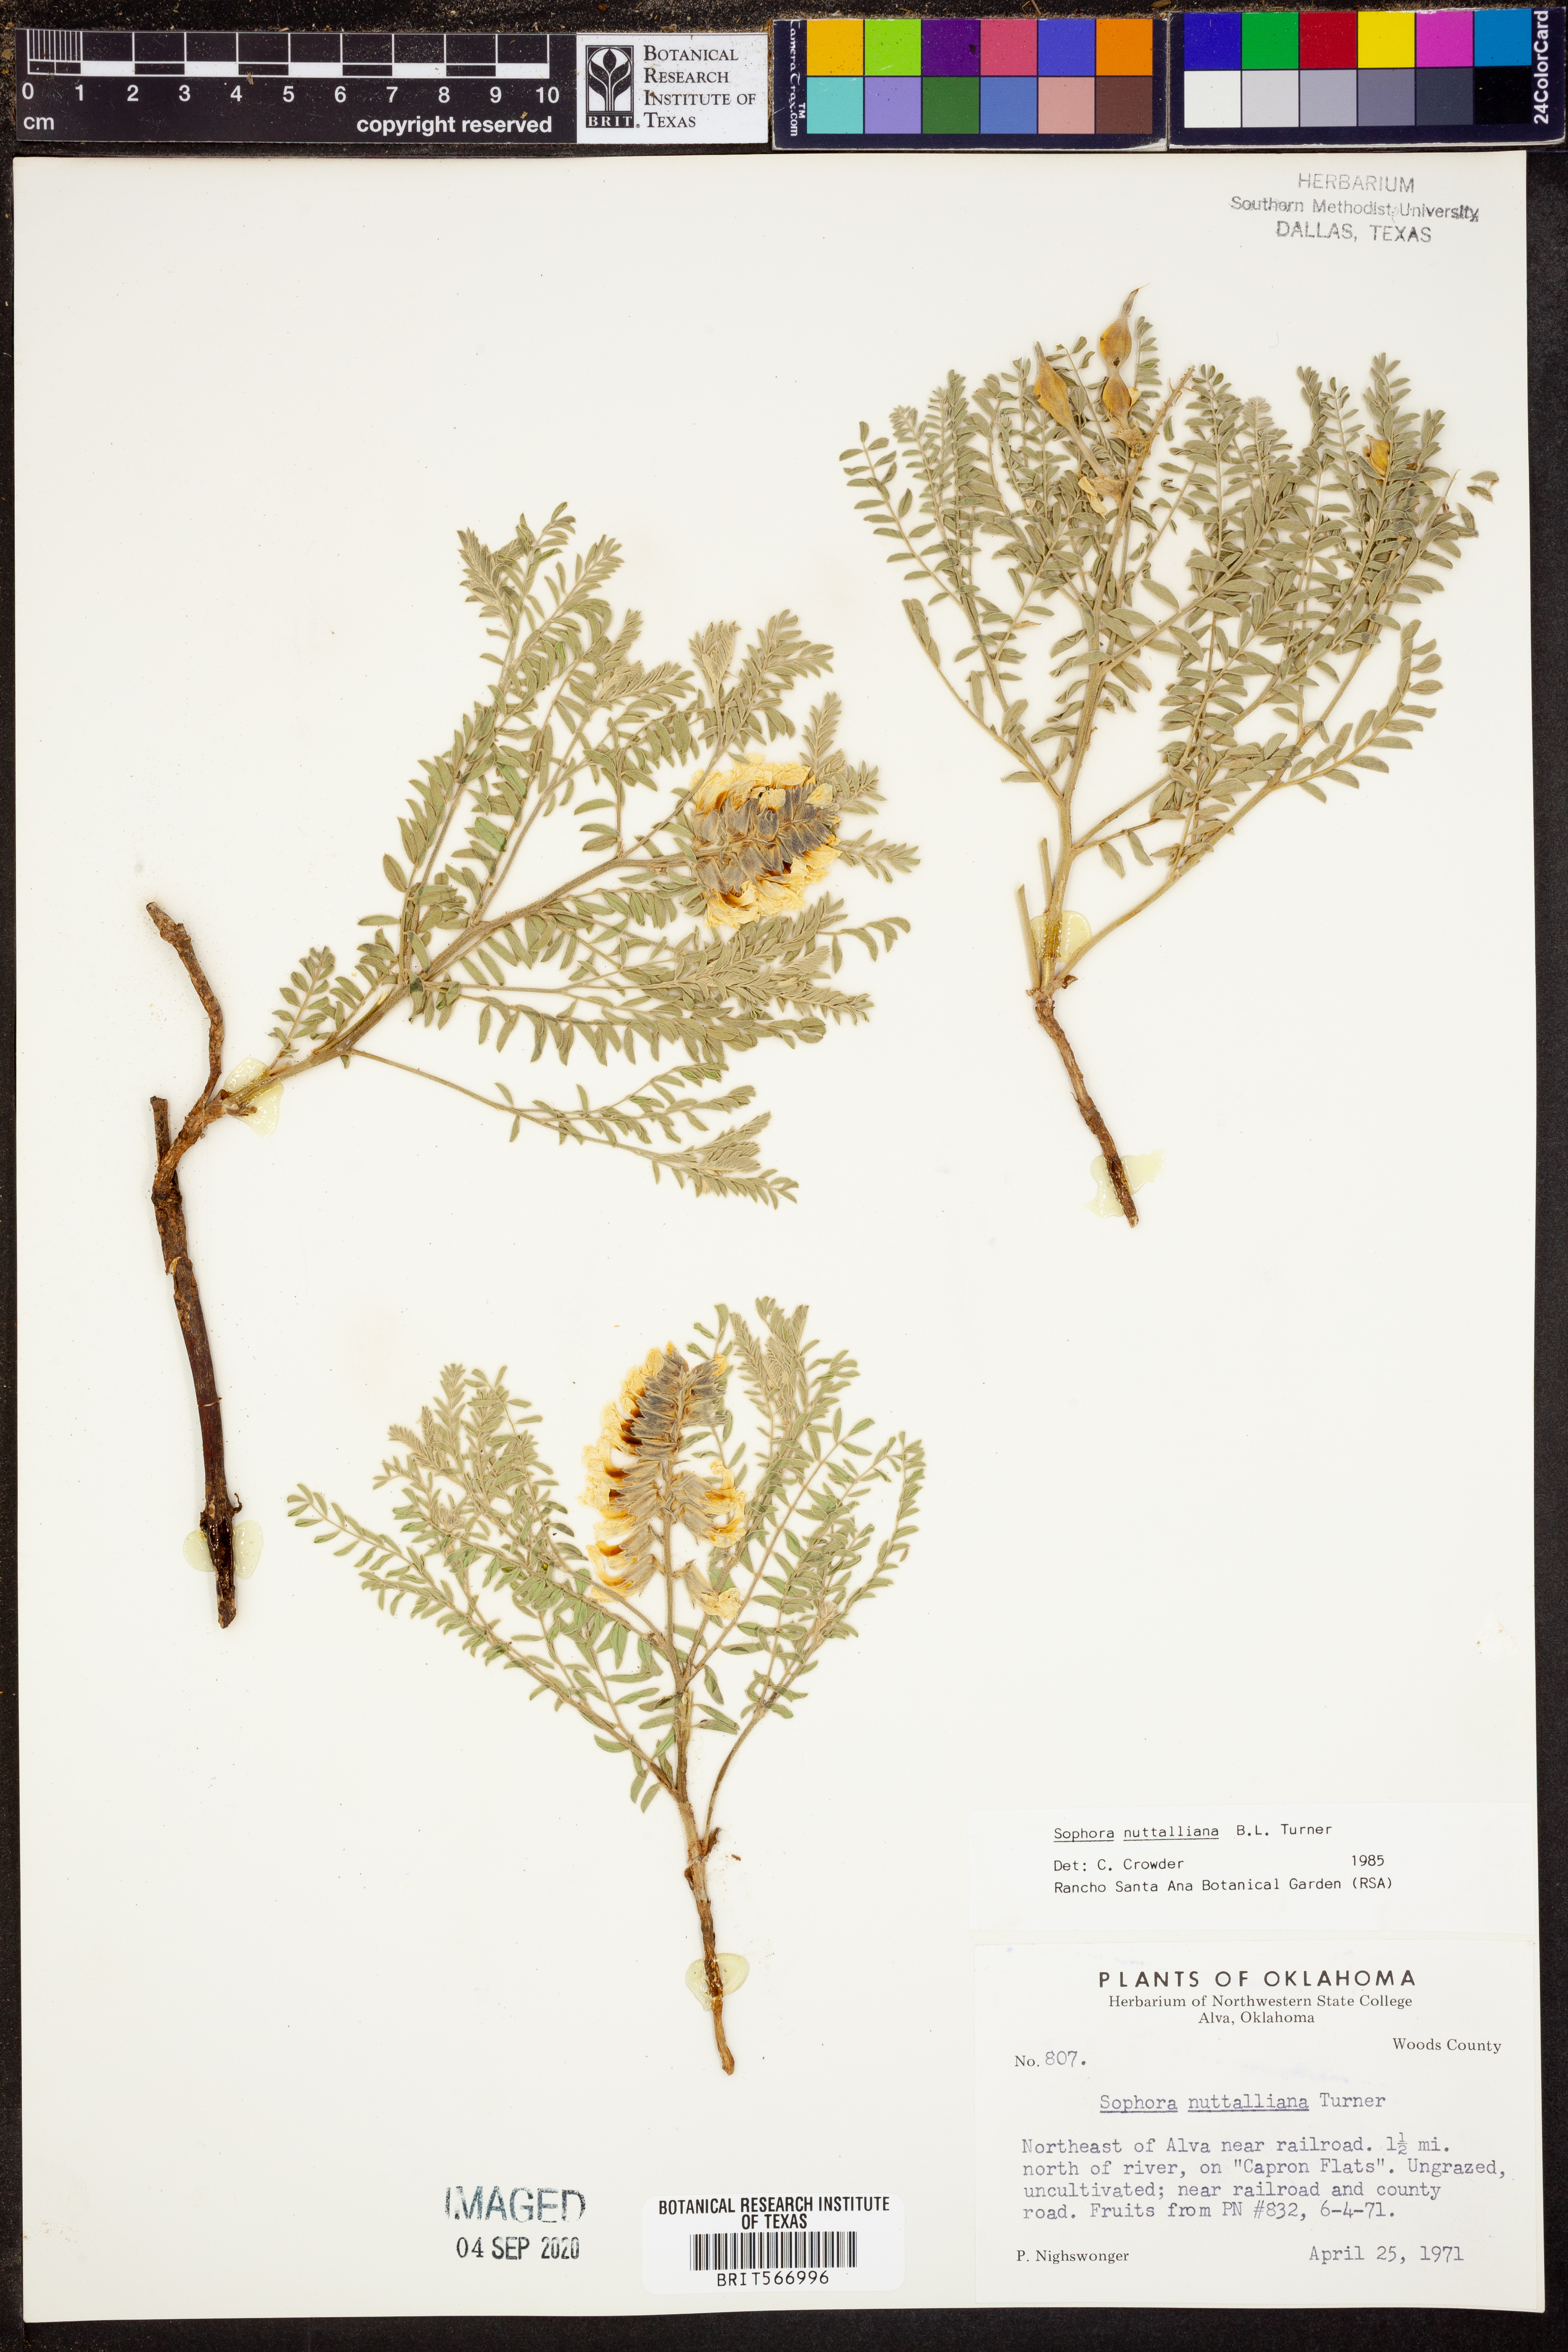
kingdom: Plantae
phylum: Tracheophyta
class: Magnoliopsida
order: Fabales
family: Fabaceae
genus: Sophora
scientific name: Sophora nuttalliana
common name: Silky sophora
